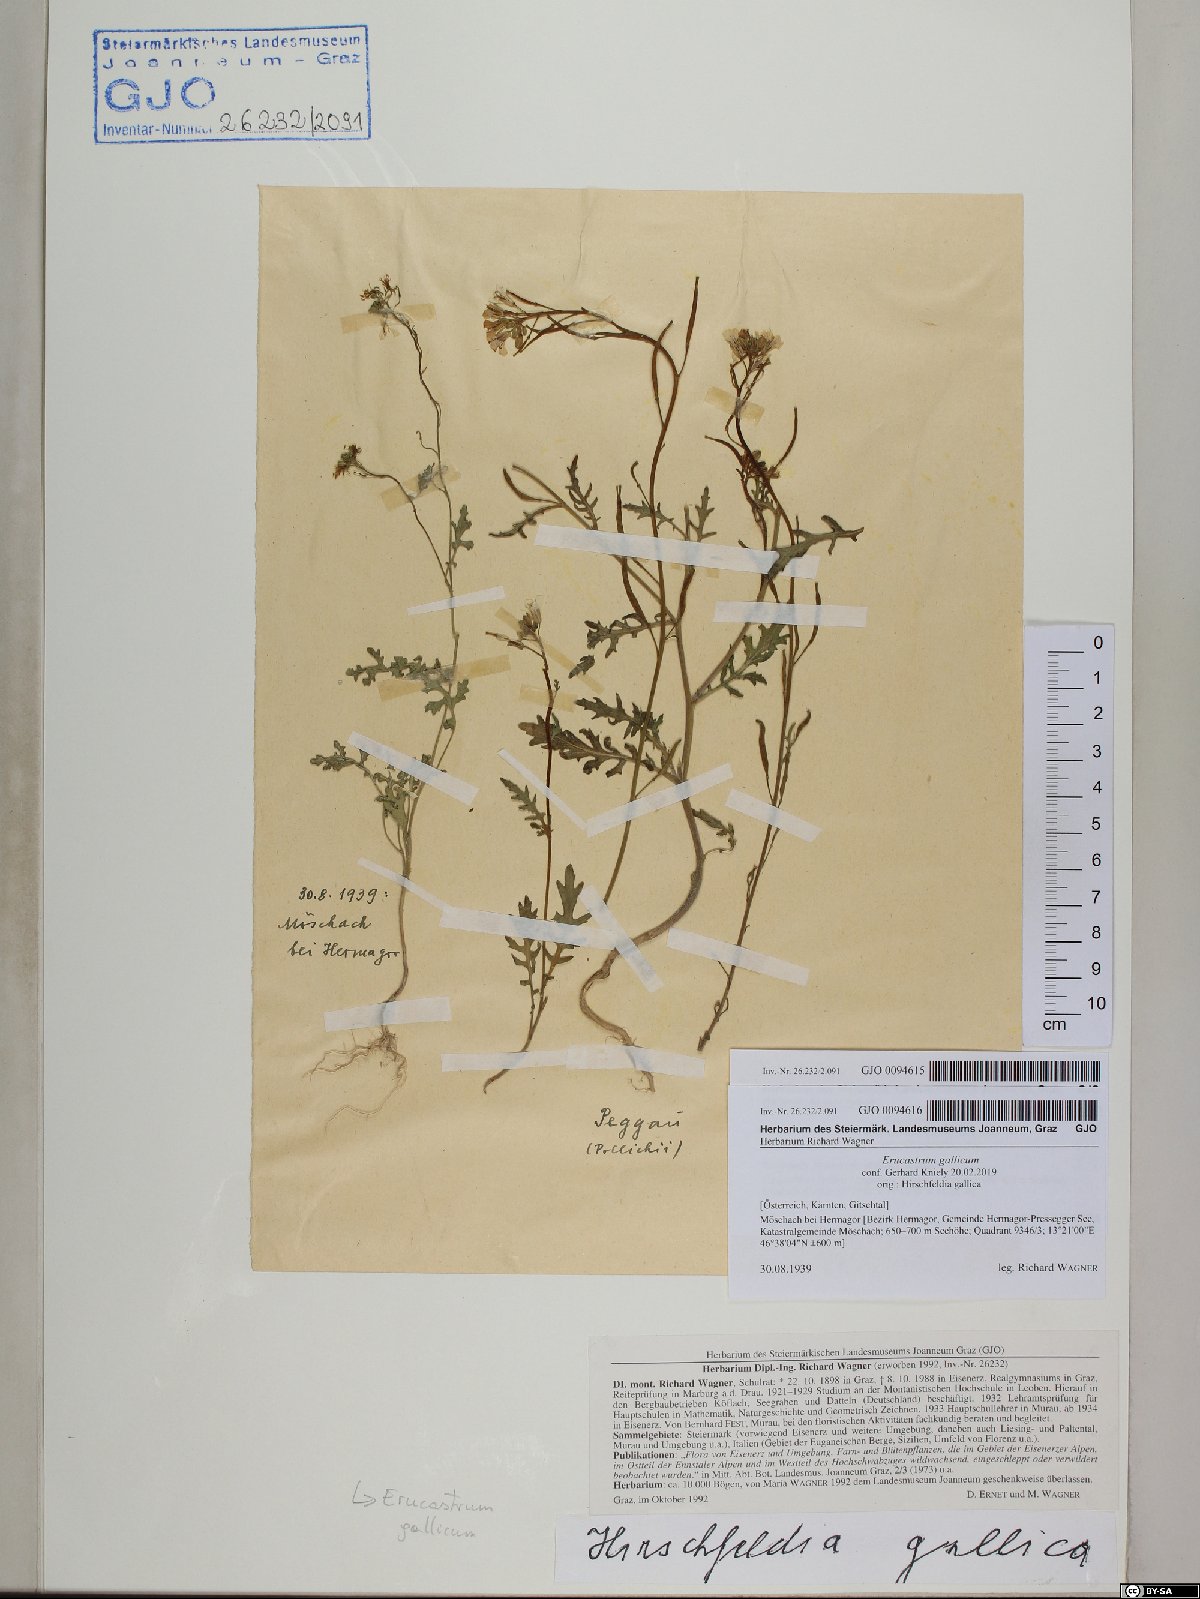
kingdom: Plantae
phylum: Tracheophyta
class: Magnoliopsida
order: Brassicales
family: Brassicaceae
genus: Erucastrum
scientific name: Erucastrum gallicum
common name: Hairy rocket
